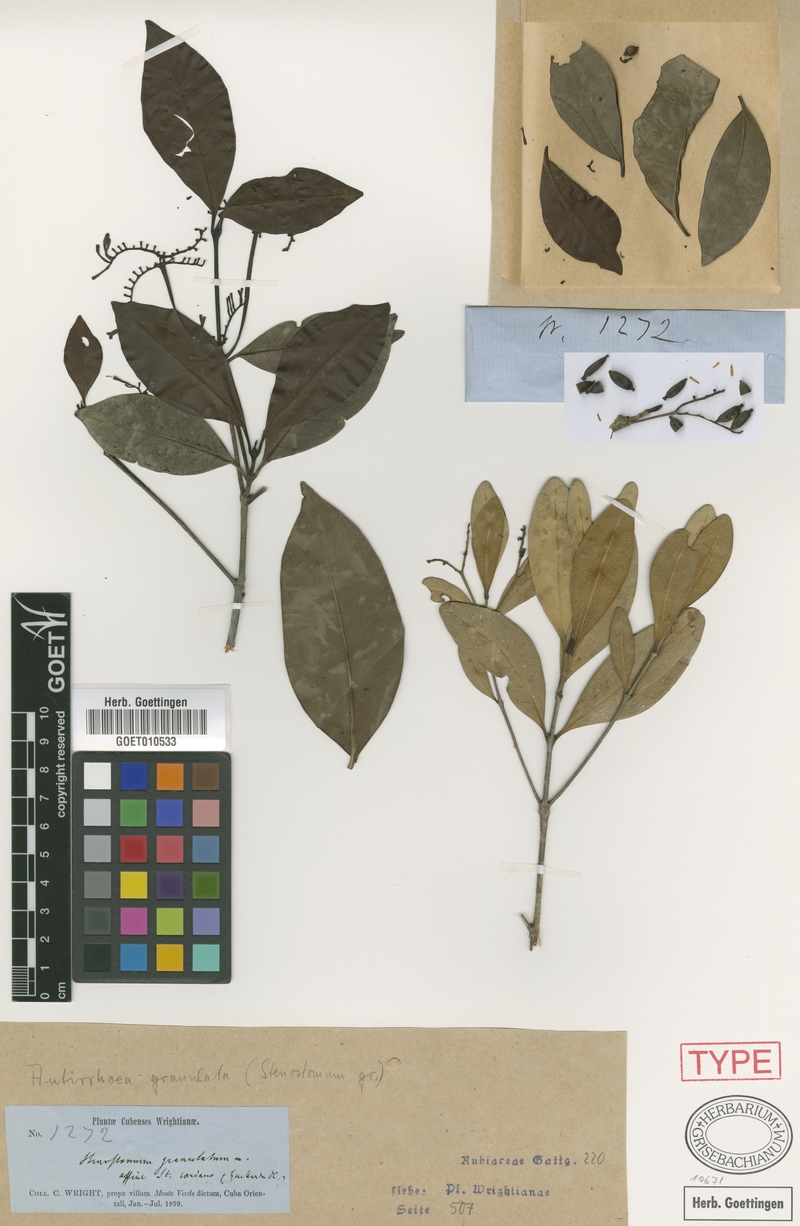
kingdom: Plantae
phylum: Tracheophyta
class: Magnoliopsida
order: Gentianales
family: Rubiaceae
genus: Stenostomum
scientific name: Stenostomum granulatum
